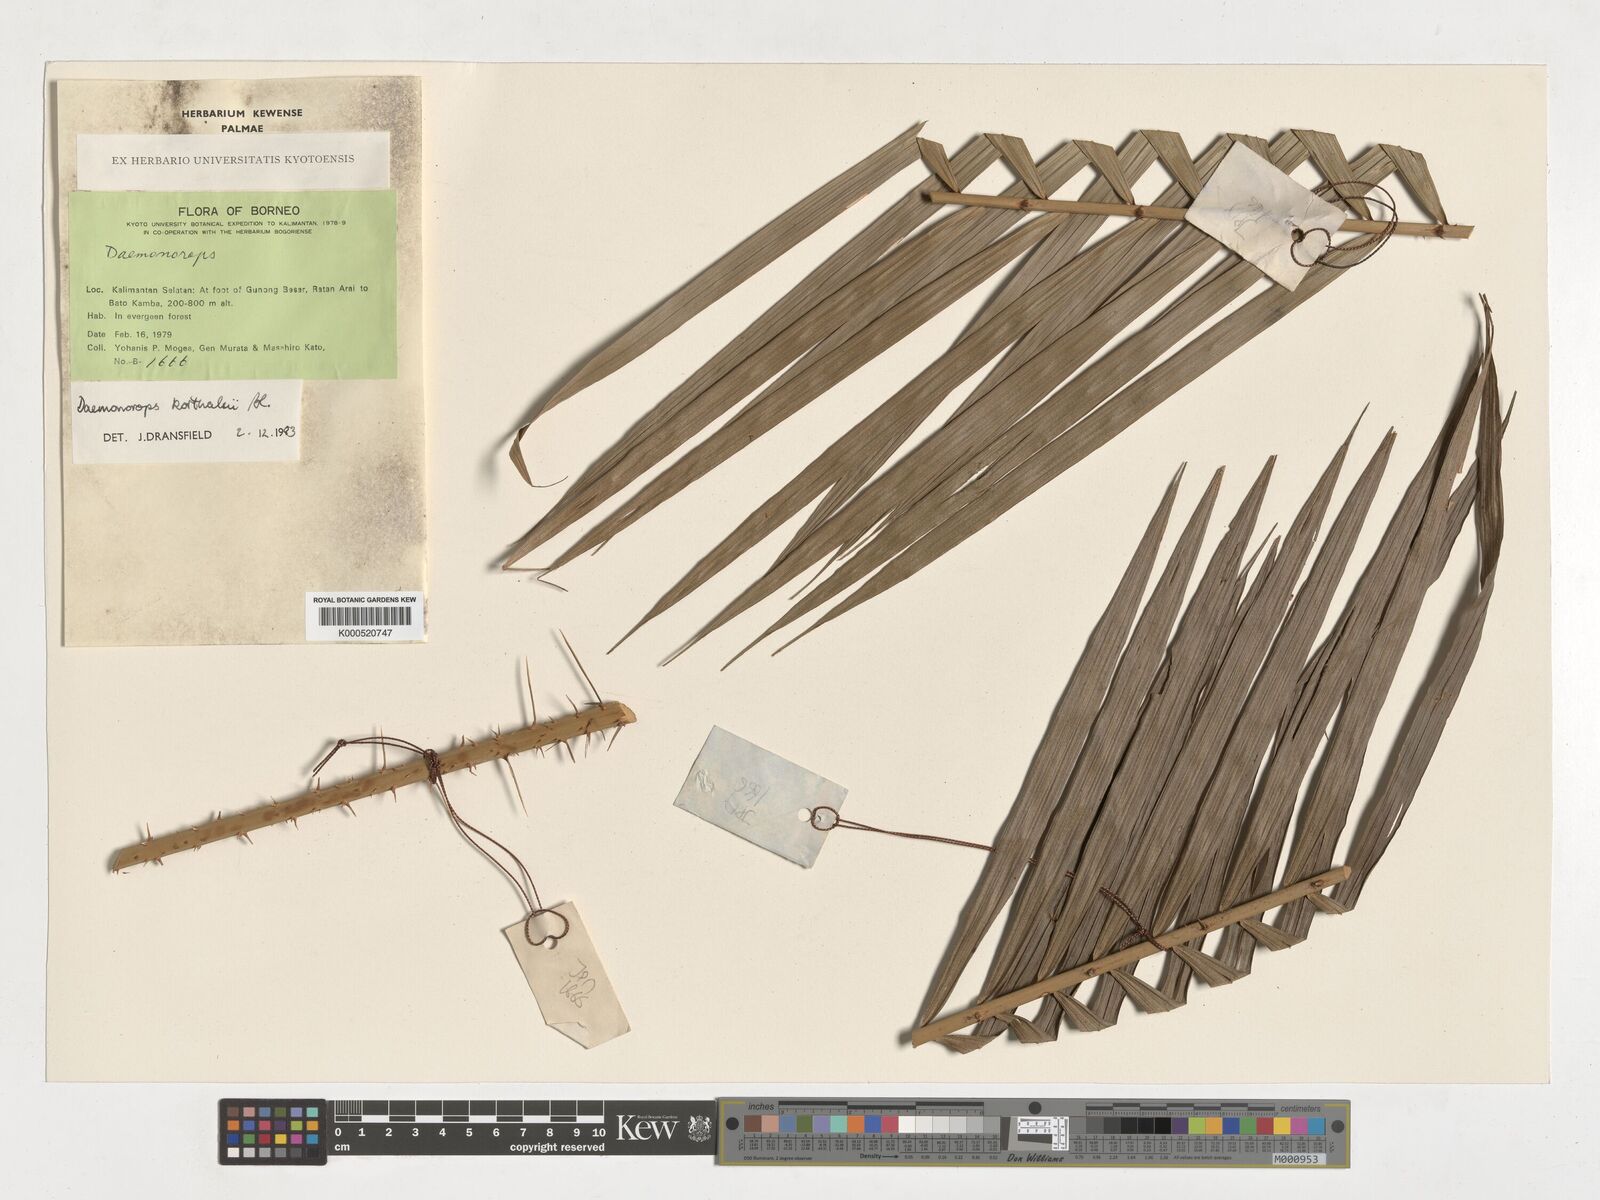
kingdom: Plantae
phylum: Tracheophyta
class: Liliopsida
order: Arecales
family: Arecaceae
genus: Calamus
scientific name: Calamus hirsutus
